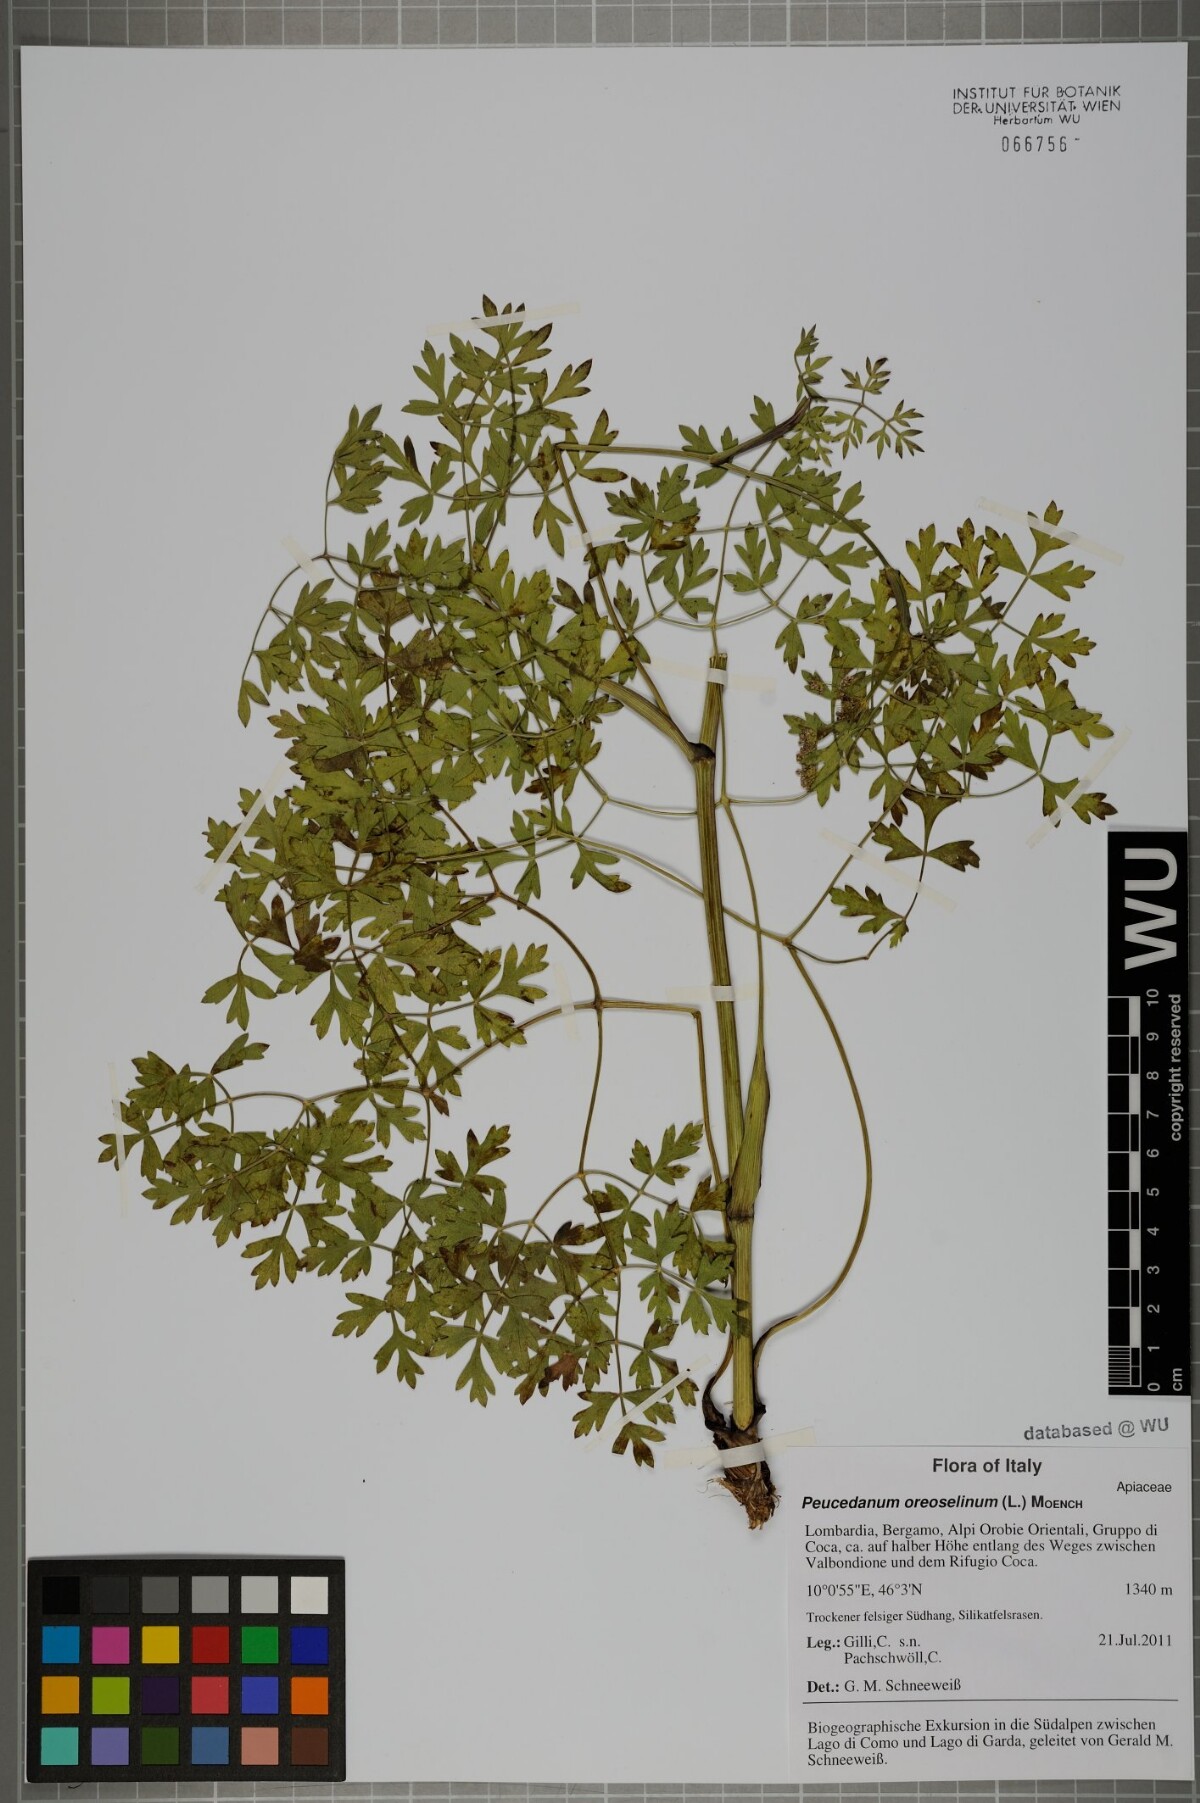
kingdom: Plantae
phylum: Tracheophyta
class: Magnoliopsida
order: Apiales
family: Apiaceae
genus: Oreoselinum
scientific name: Oreoselinum nigrum
